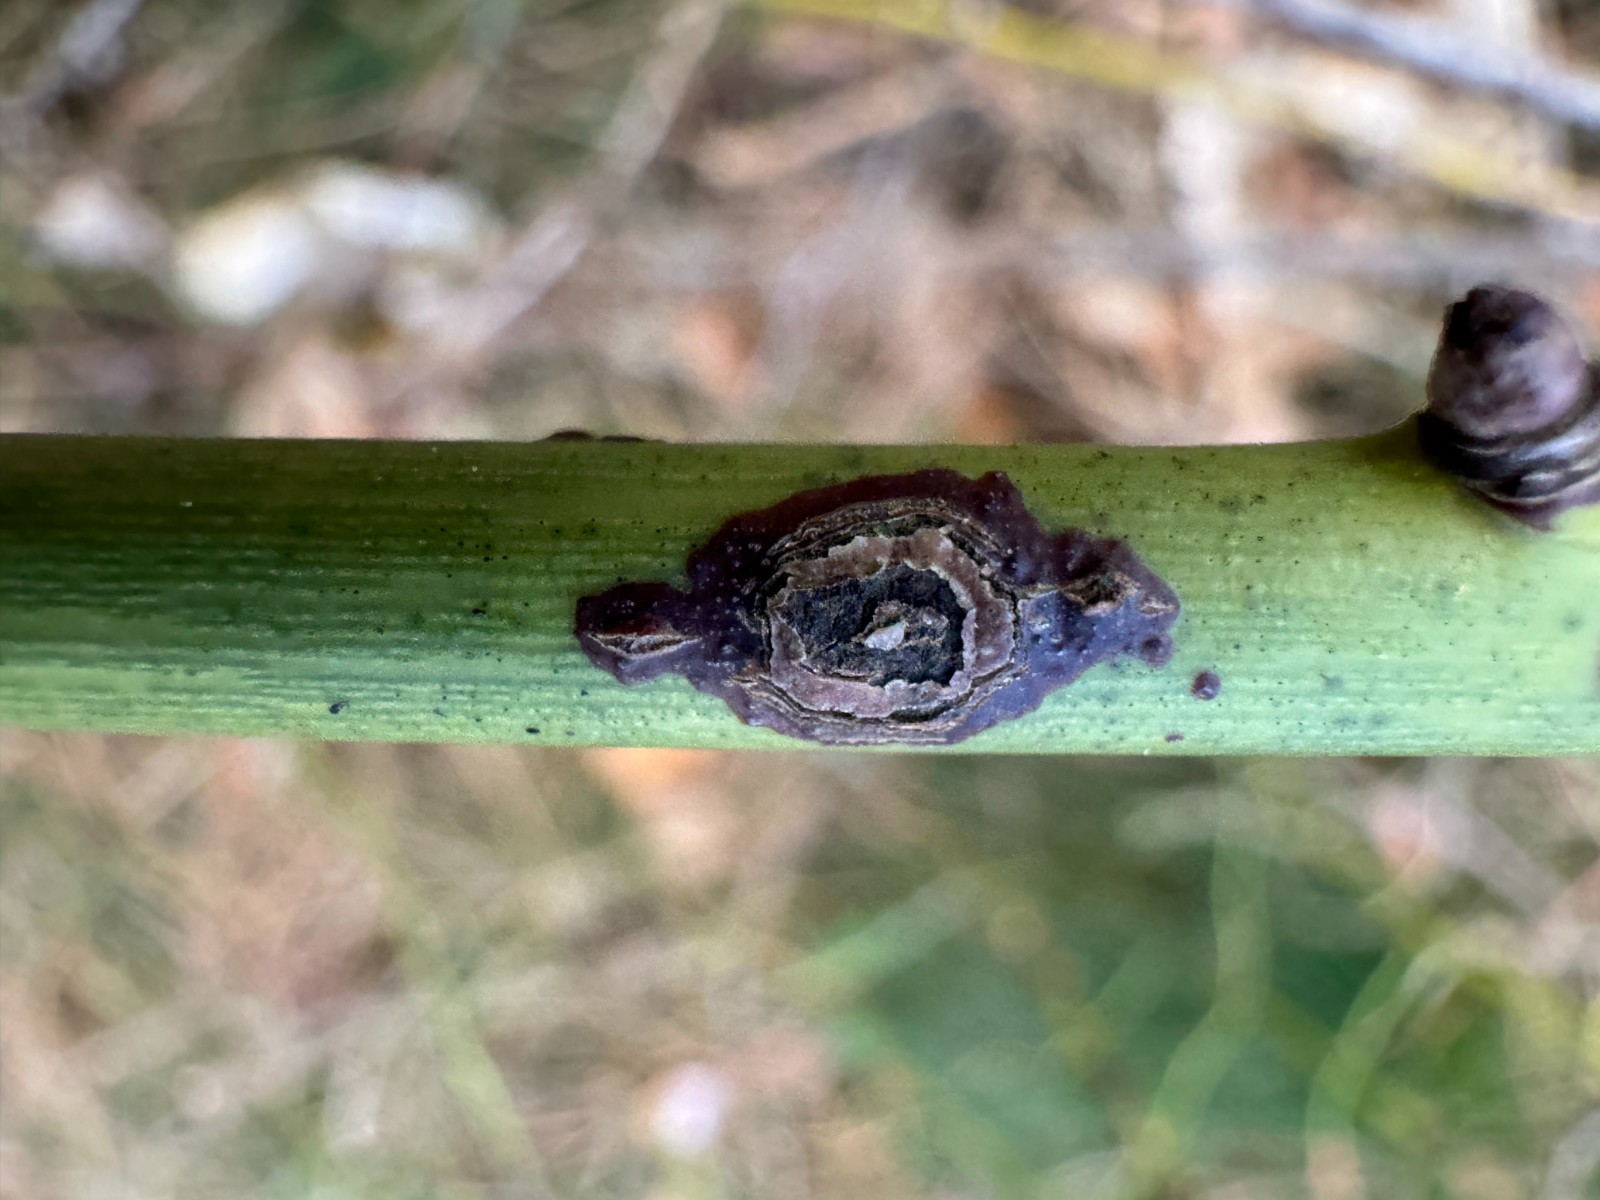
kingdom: Fungi
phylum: Ascomycota
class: Dothideomycetes
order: Botryosphaeriales
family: Botryosphaeriaceae
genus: Botryosphaeria
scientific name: Botryosphaeria dothidea
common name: Asteromyia gall midge fungus
